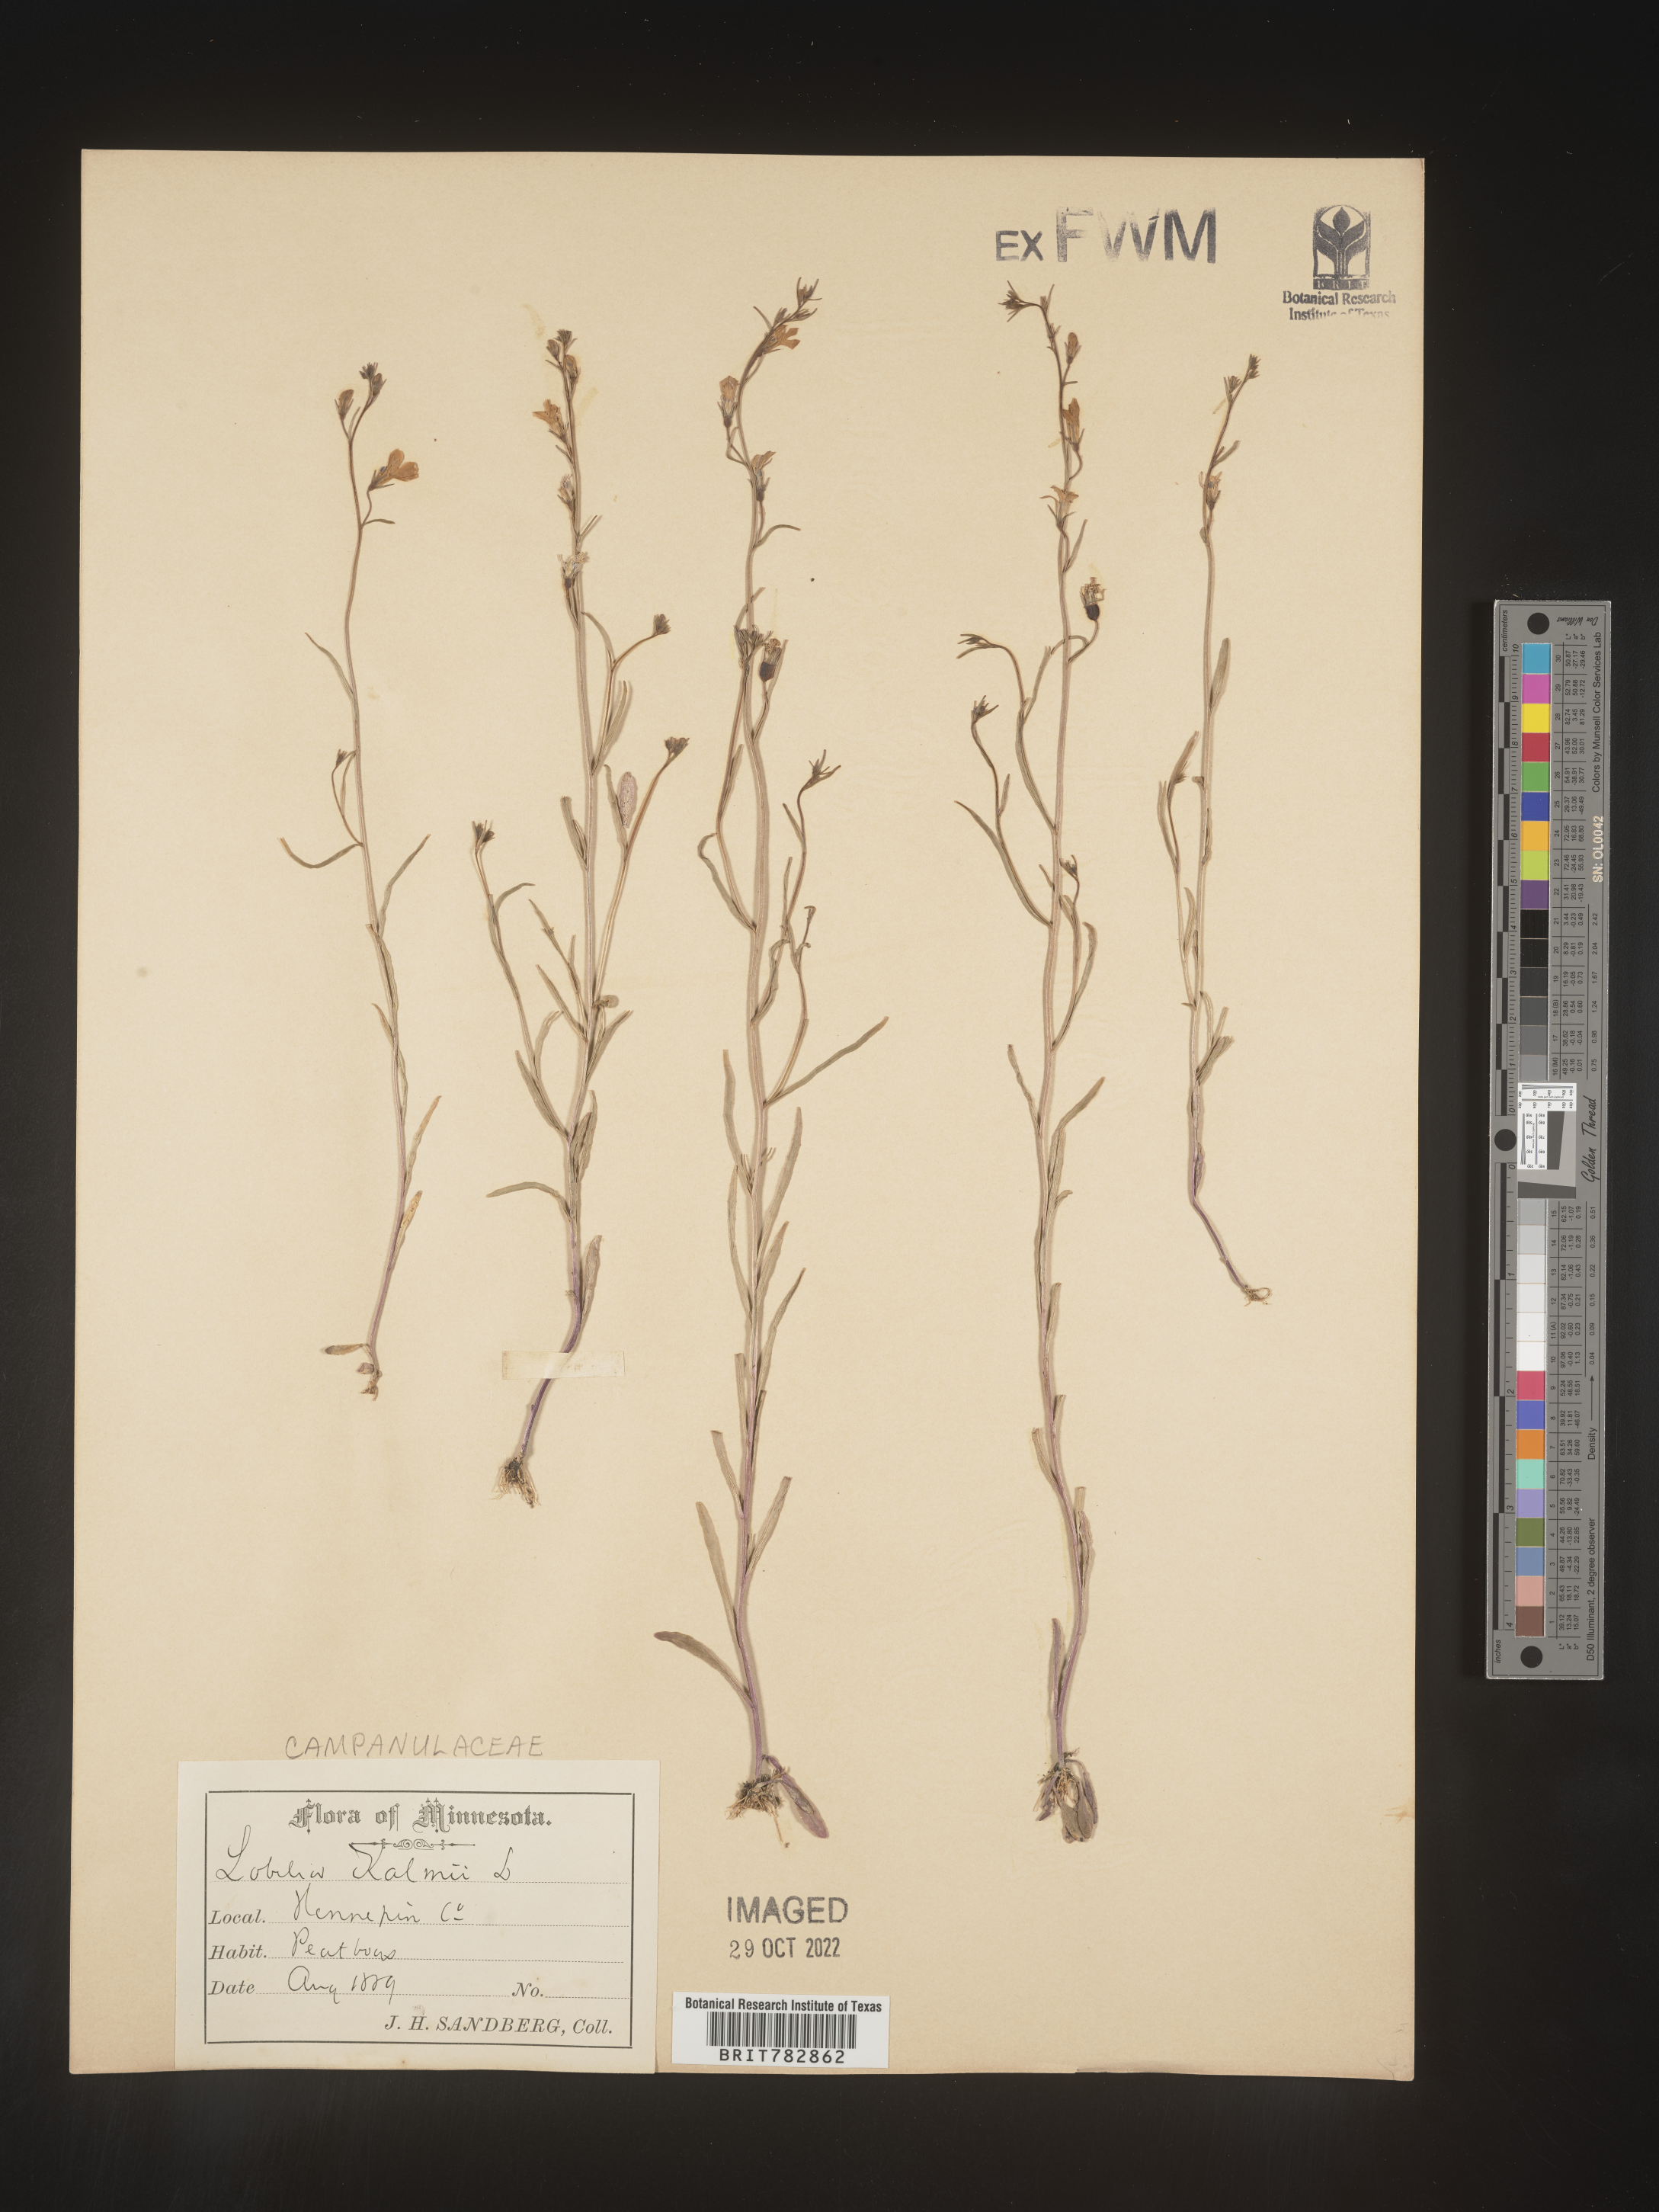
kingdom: Plantae
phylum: Tracheophyta
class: Magnoliopsida
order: Asterales
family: Campanulaceae
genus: Lobelia
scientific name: Lobelia
